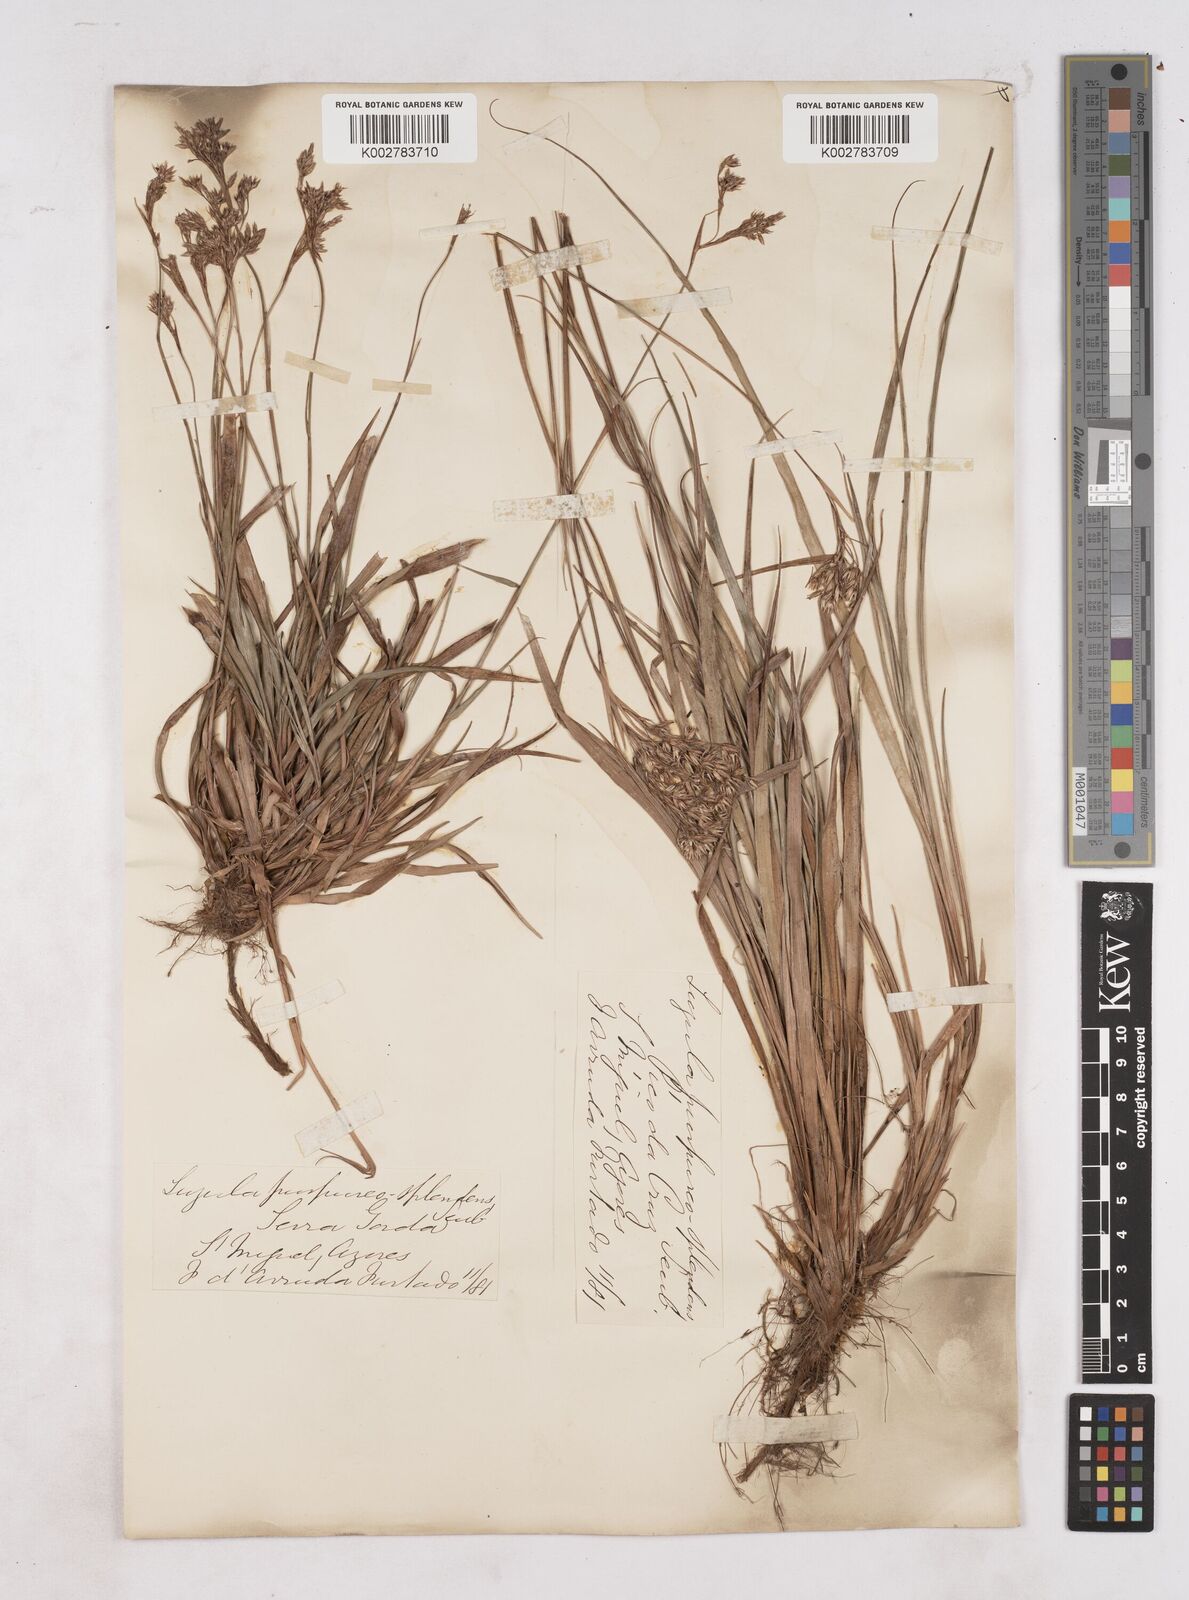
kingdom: Plantae
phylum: Tracheophyta
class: Liliopsida
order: Poales
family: Juncaceae
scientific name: Juncaceae
